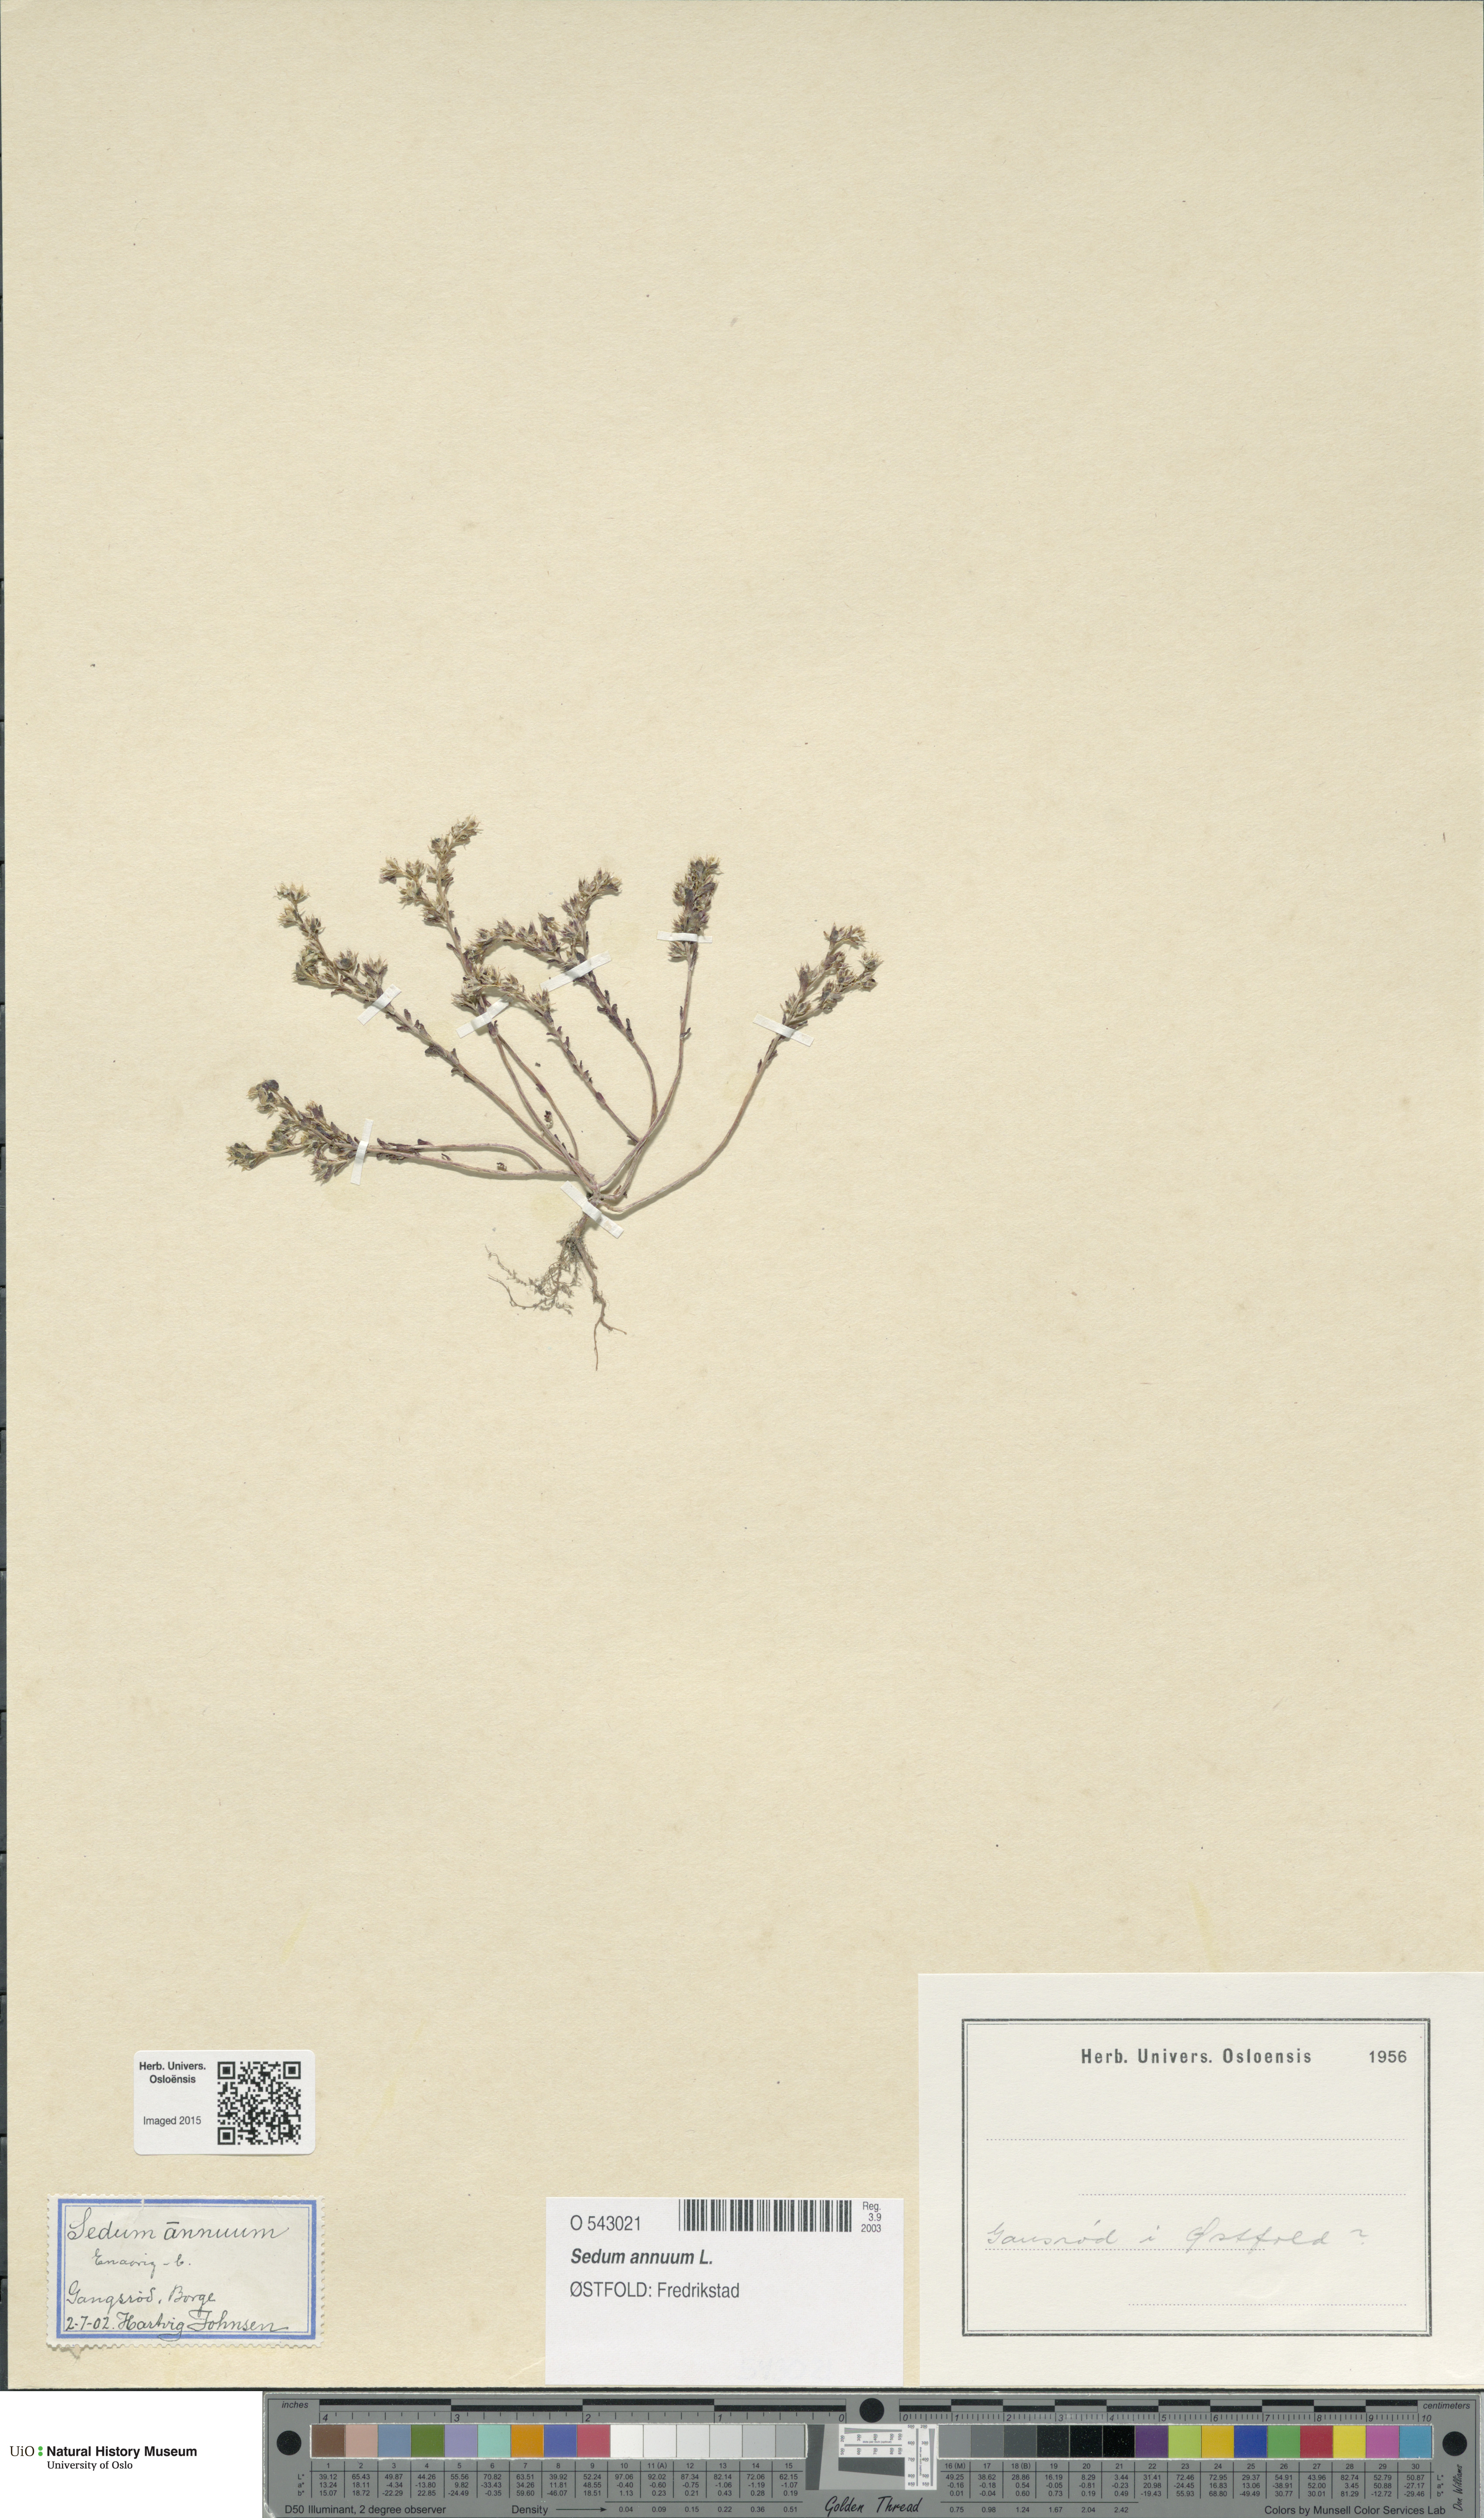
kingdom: Plantae
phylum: Tracheophyta
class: Magnoliopsida
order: Saxifragales
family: Crassulaceae
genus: Sedum
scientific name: Sedum annuum
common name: Annual stonecrop
